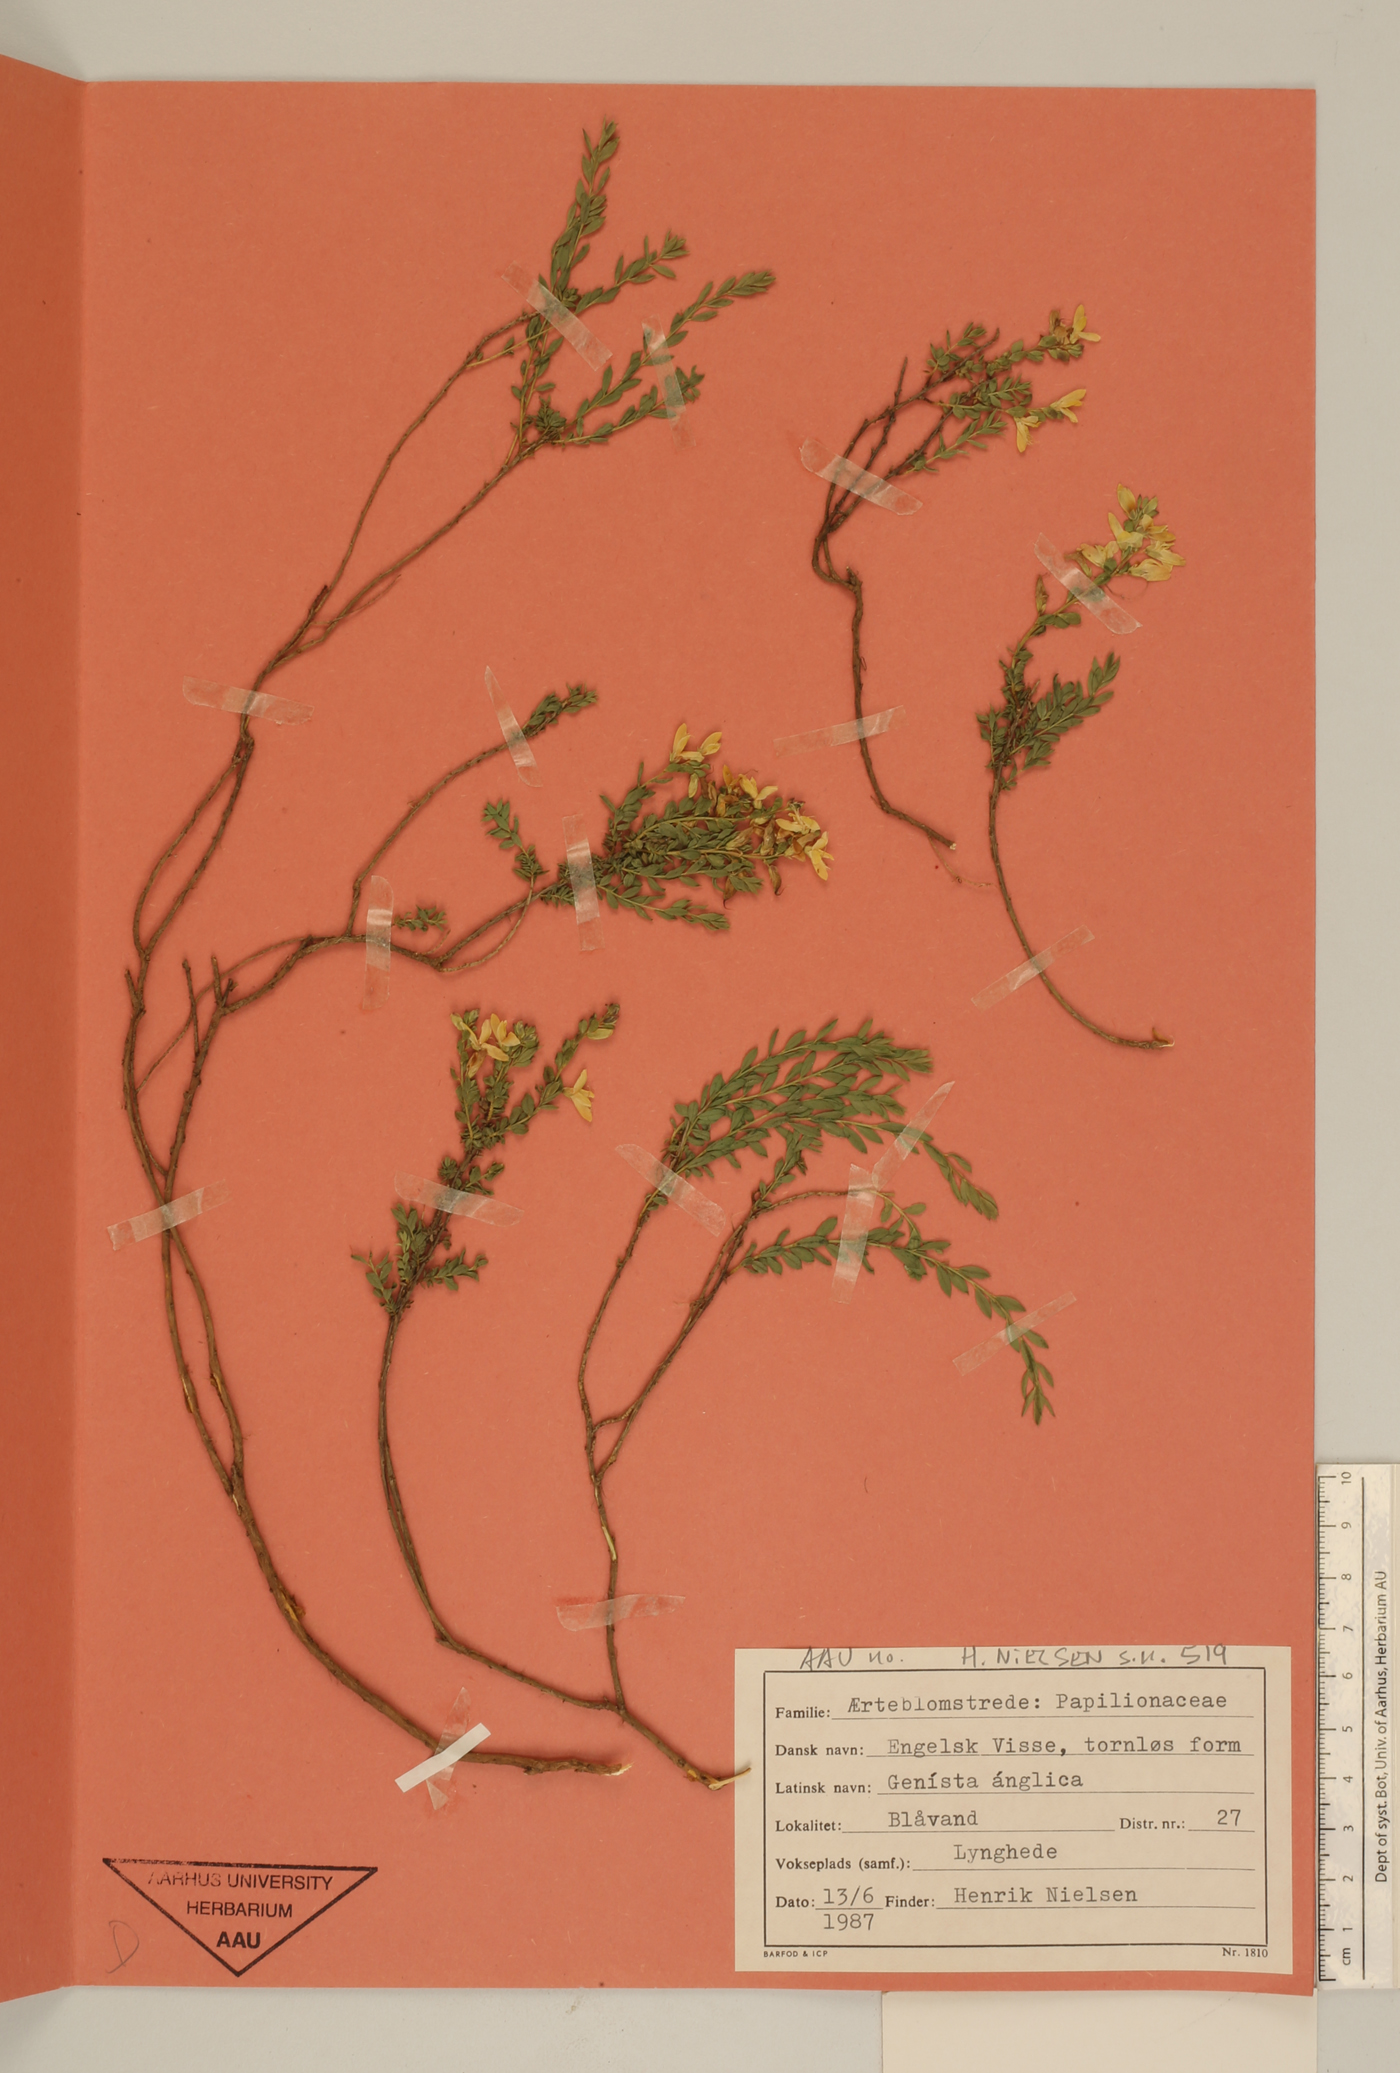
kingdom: Plantae
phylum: Tracheophyta
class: Magnoliopsida
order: Fabales
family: Fabaceae
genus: Genista
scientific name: Genista anglica
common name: Petty whin
